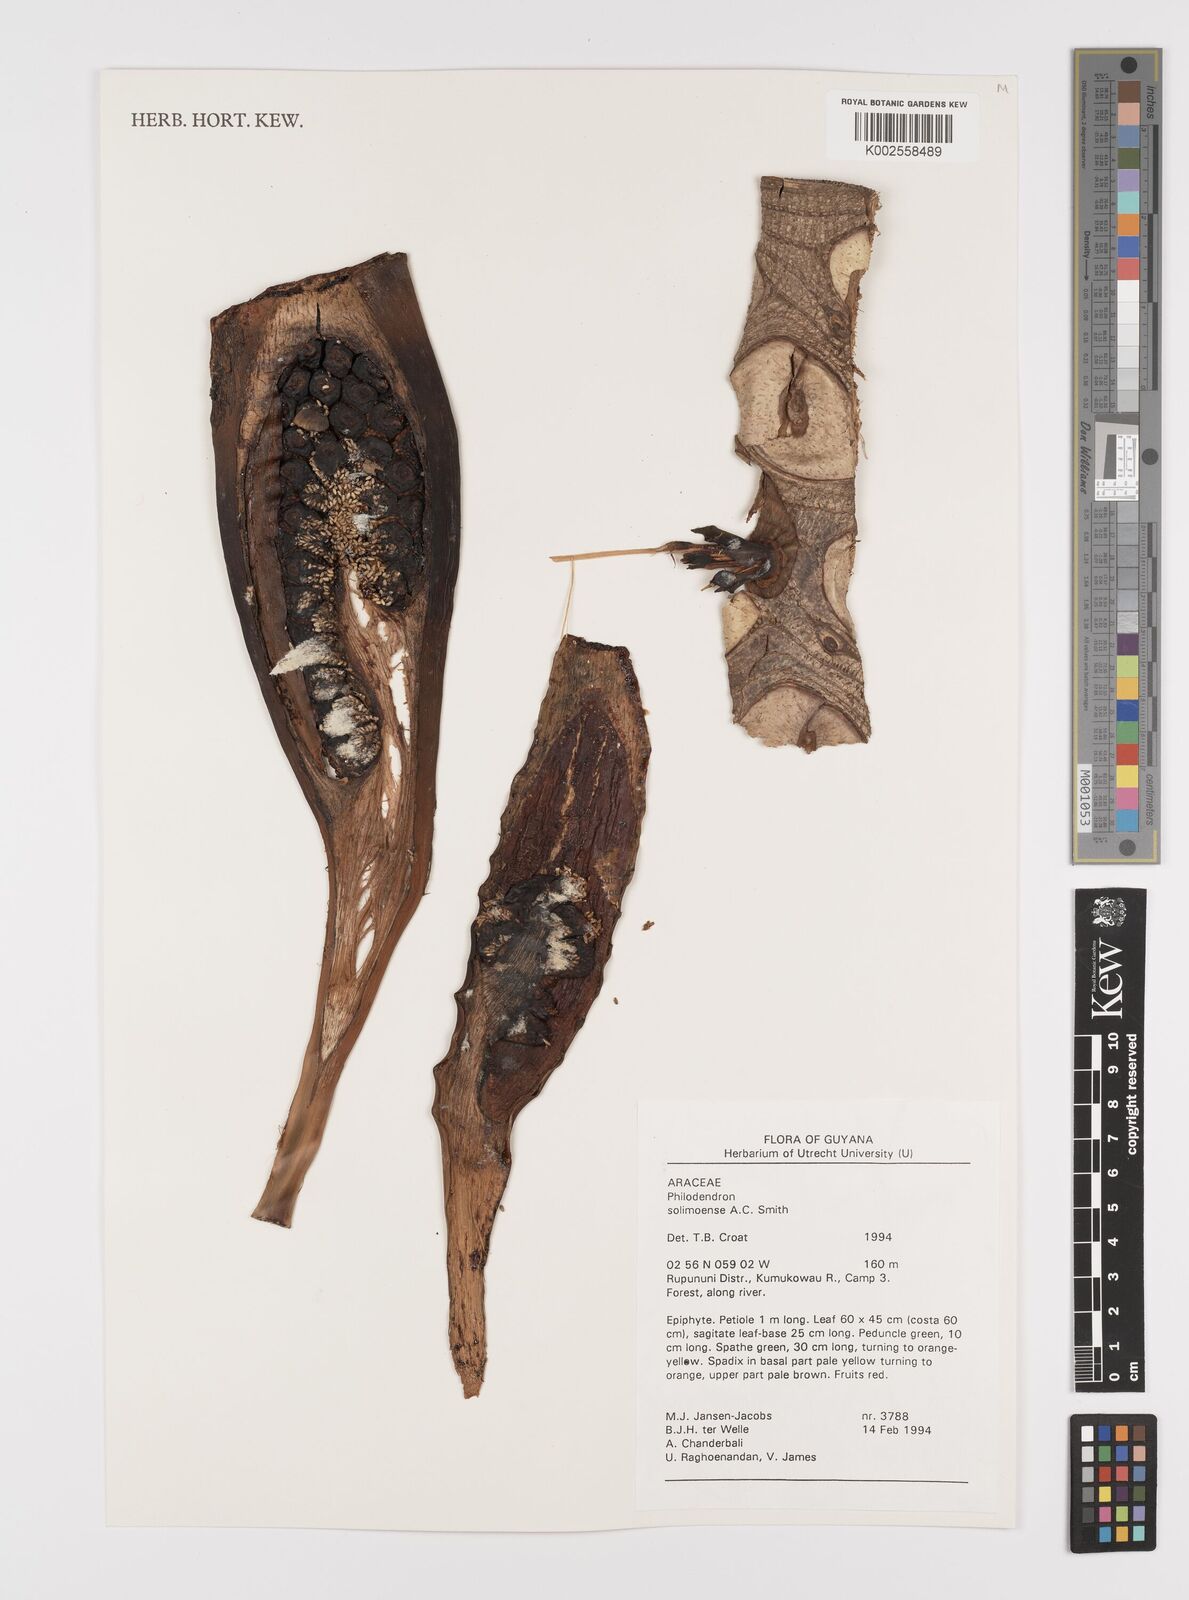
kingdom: Plantae
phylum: Tracheophyta
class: Liliopsida
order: Alismatales
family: Araceae
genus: Thaumatophyllum
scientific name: Thaumatophyllum solimoesense
